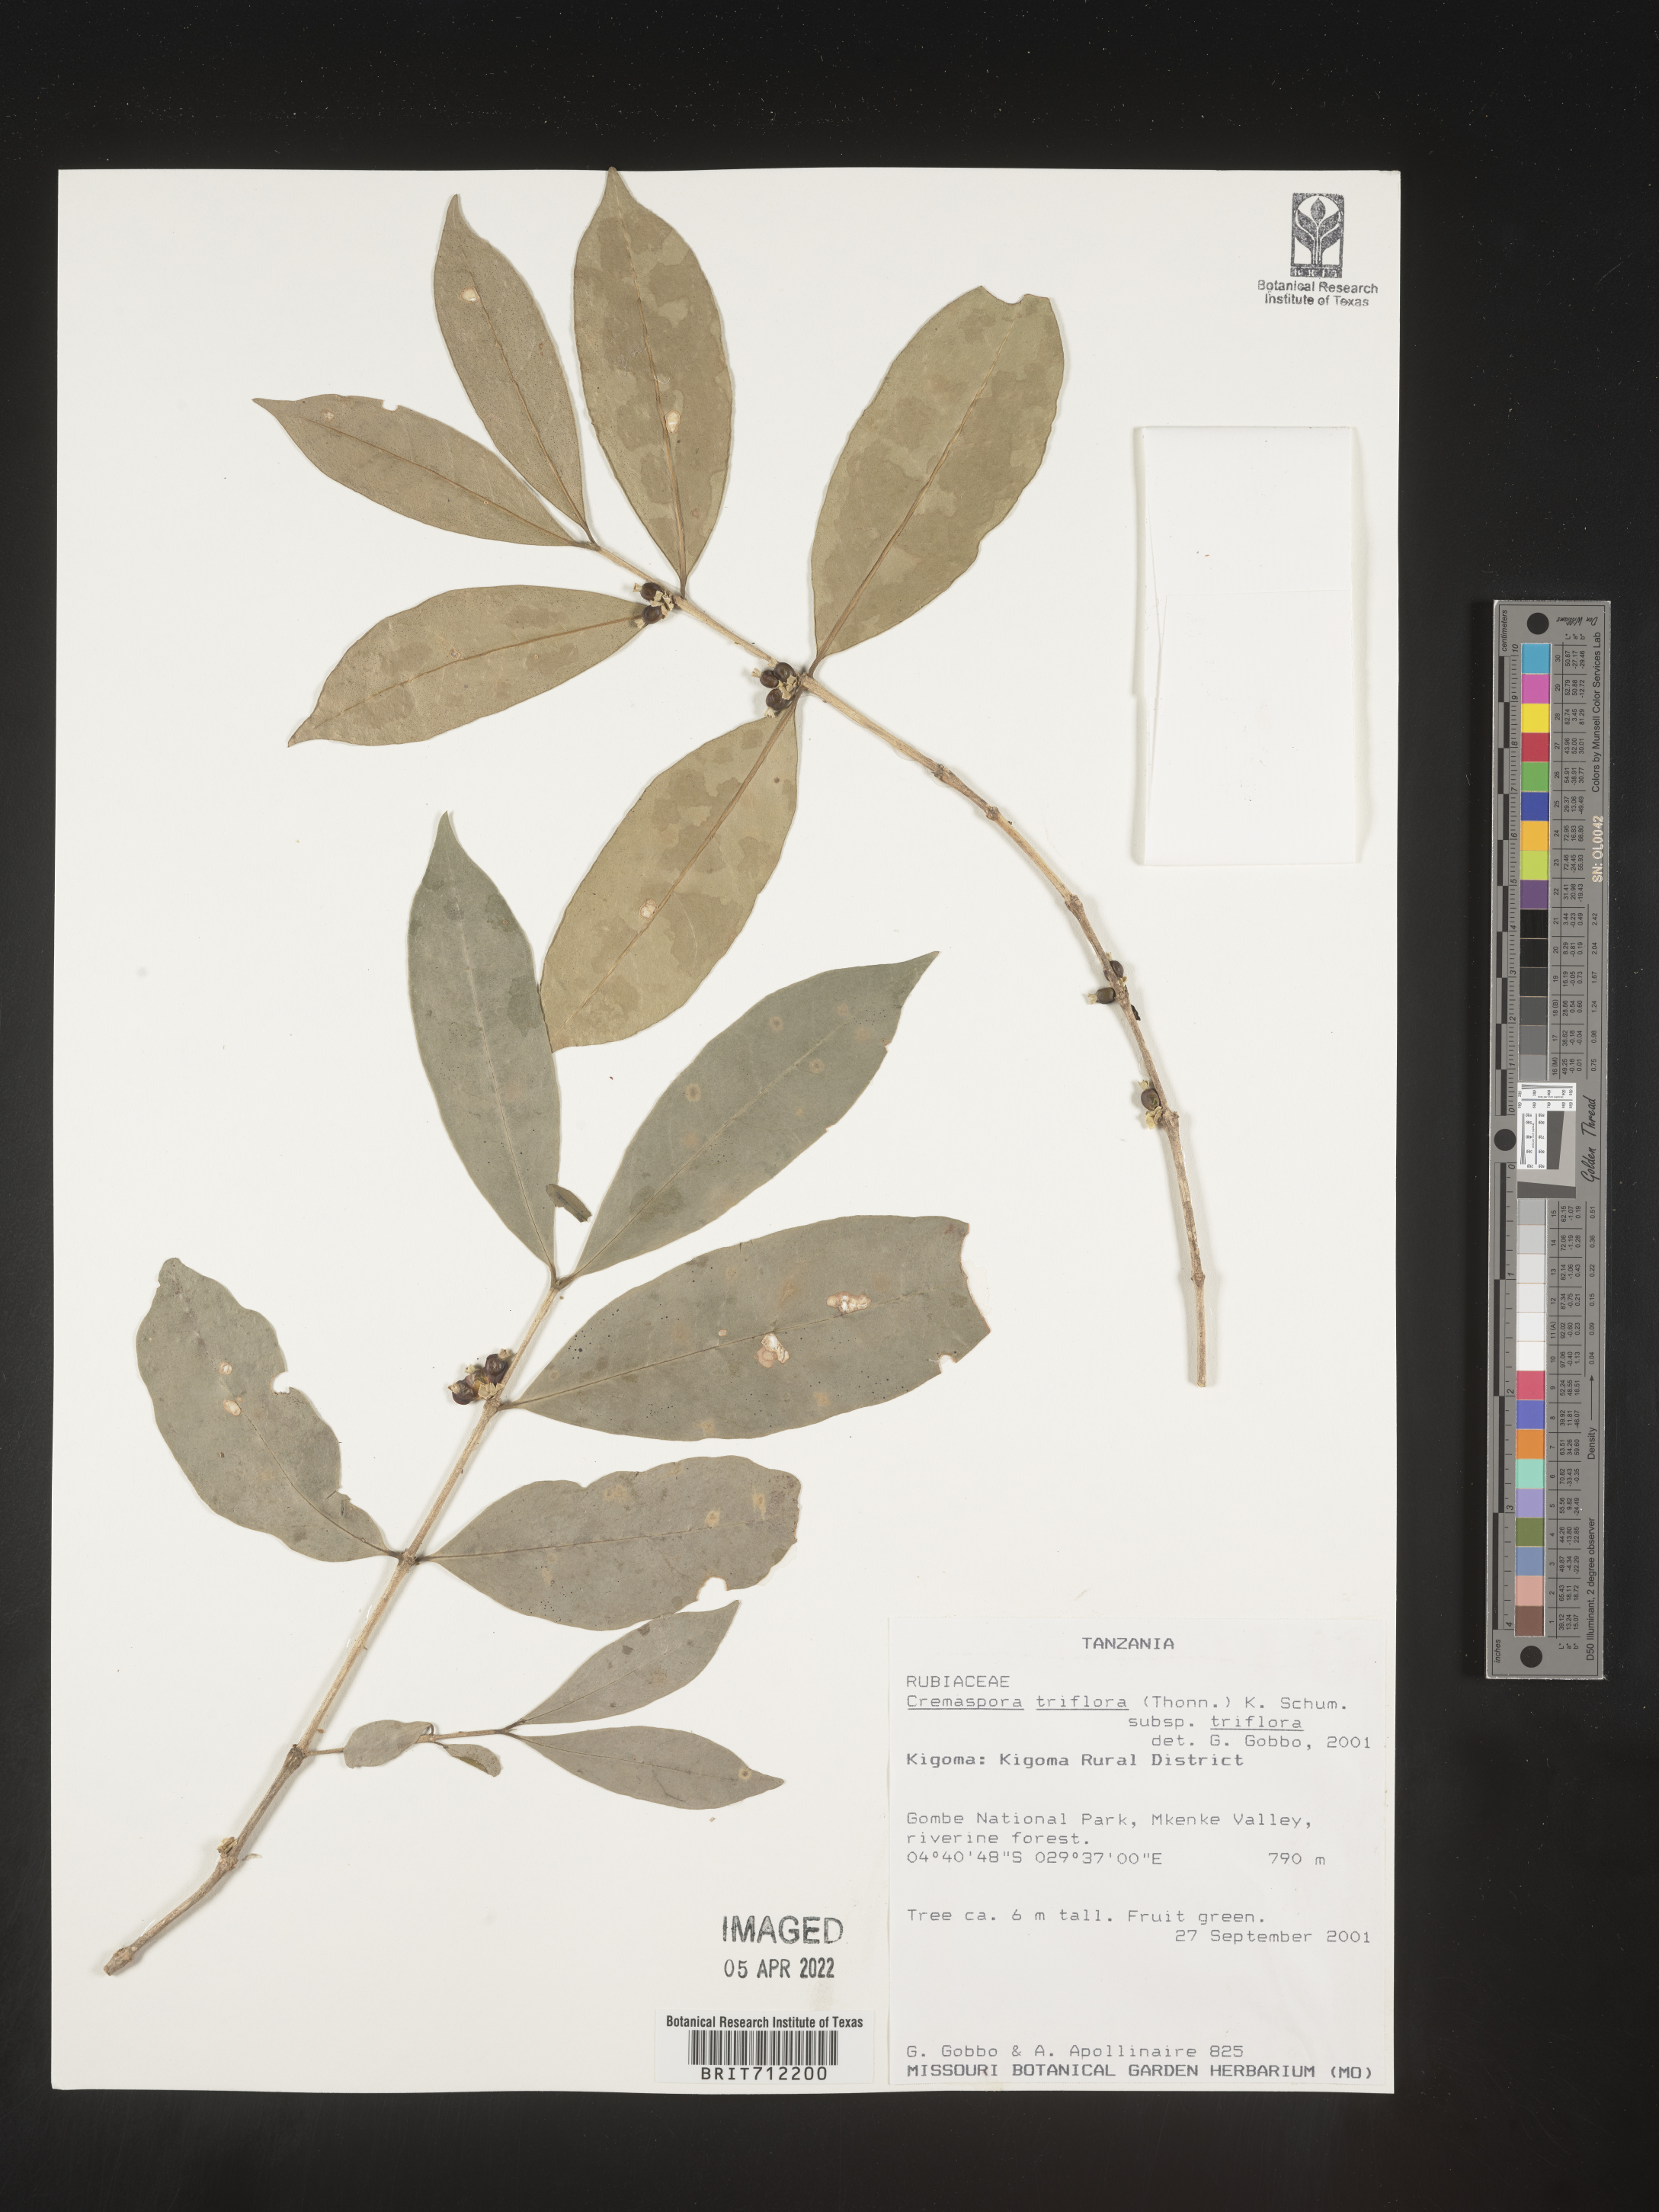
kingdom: Plantae
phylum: Tracheophyta
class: Magnoliopsida
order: Gentianales
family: Rubiaceae
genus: Cremaspora
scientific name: Cremaspora
